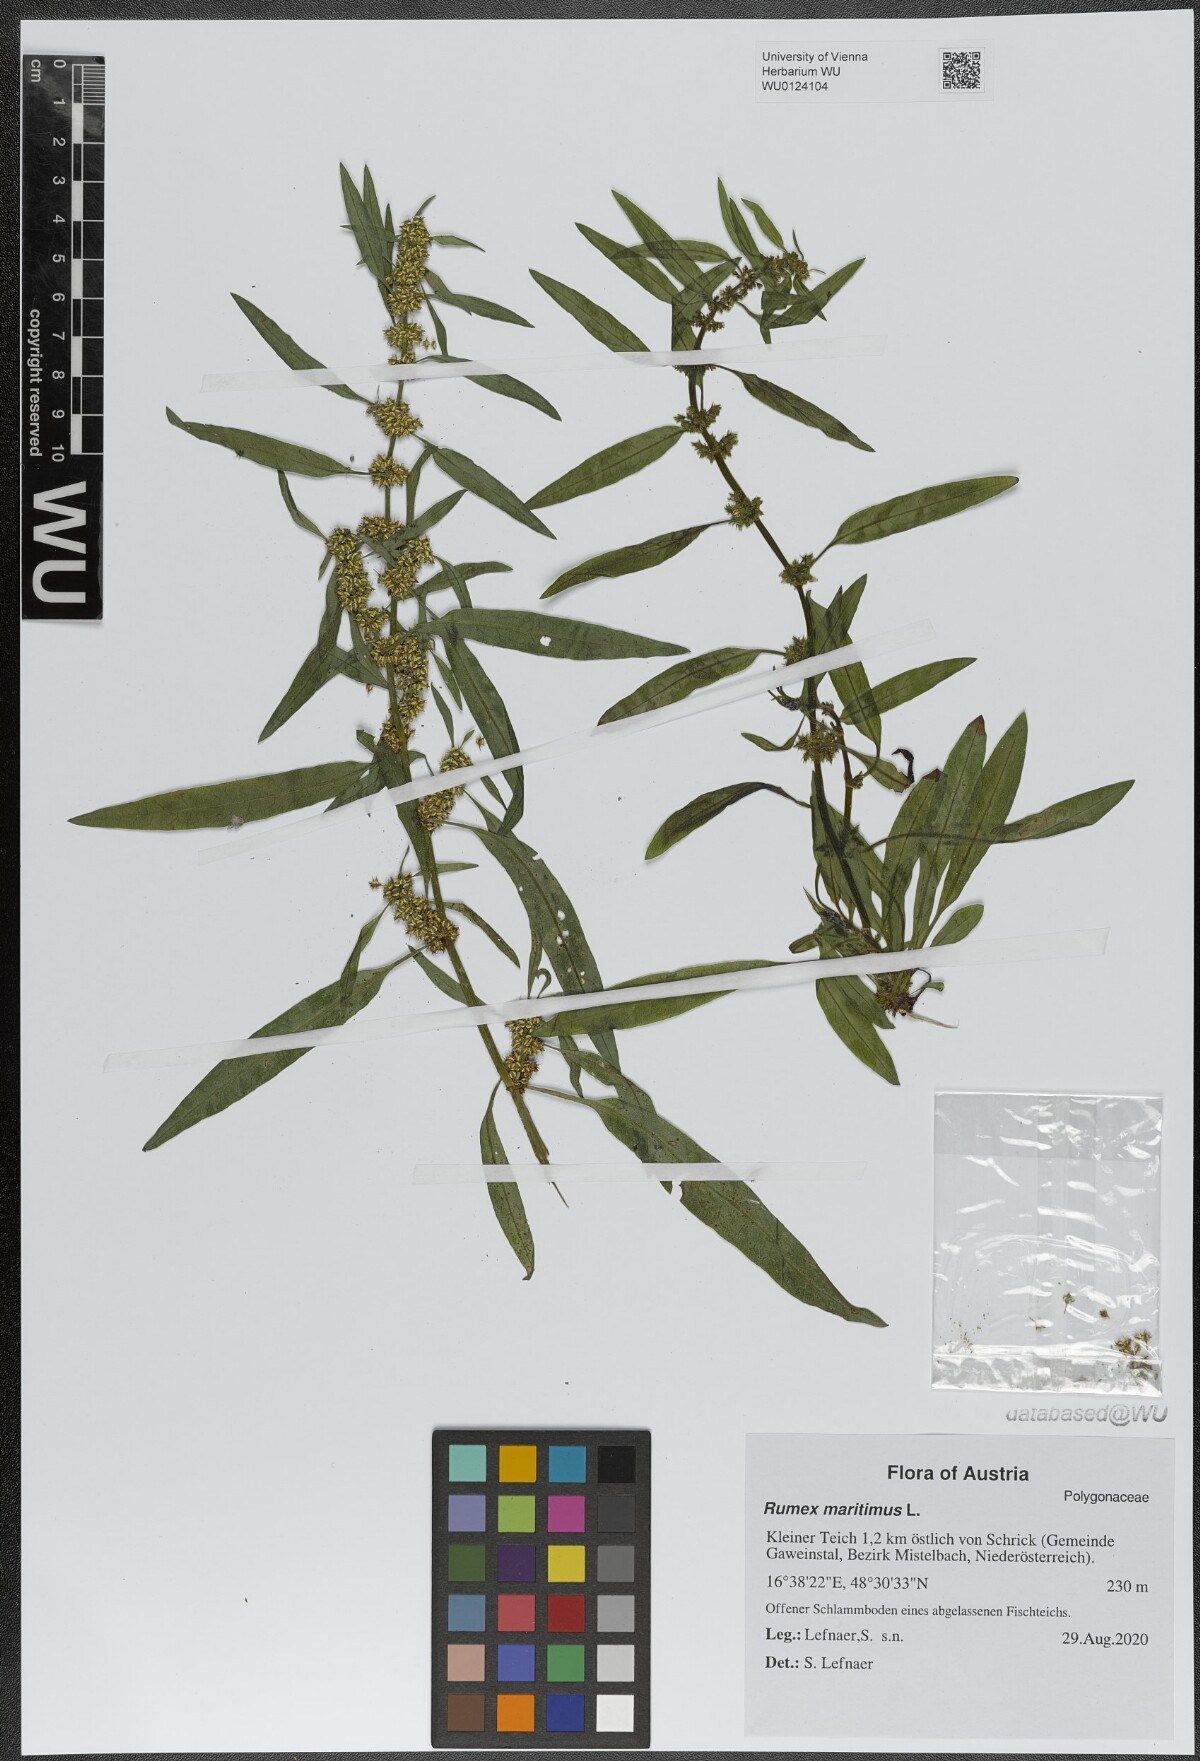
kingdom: Plantae
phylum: Tracheophyta
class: Magnoliopsida
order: Caryophyllales
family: Polygonaceae
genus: Rumex
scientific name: Rumex maritimus
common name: Golden dock
